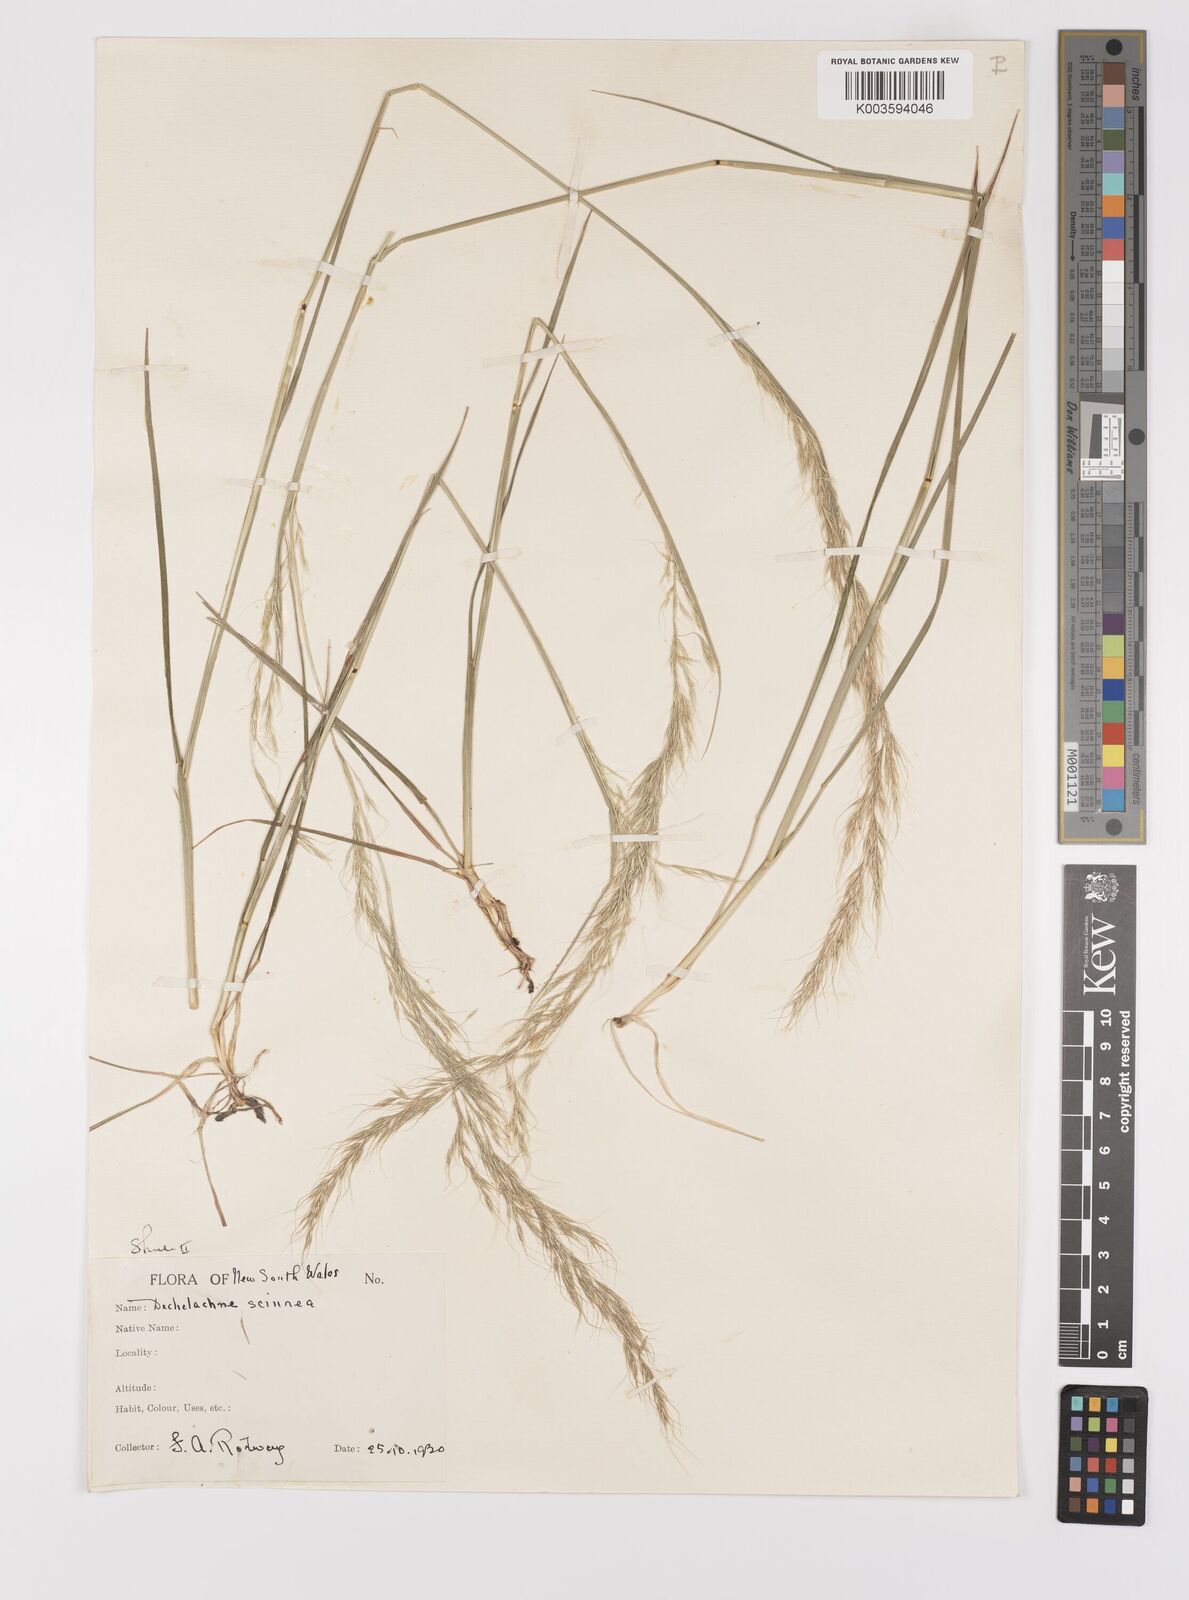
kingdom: Plantae
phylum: Tracheophyta
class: Liliopsida
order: Poales
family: Poaceae
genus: Dichelachne
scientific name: Dichelachne rara
